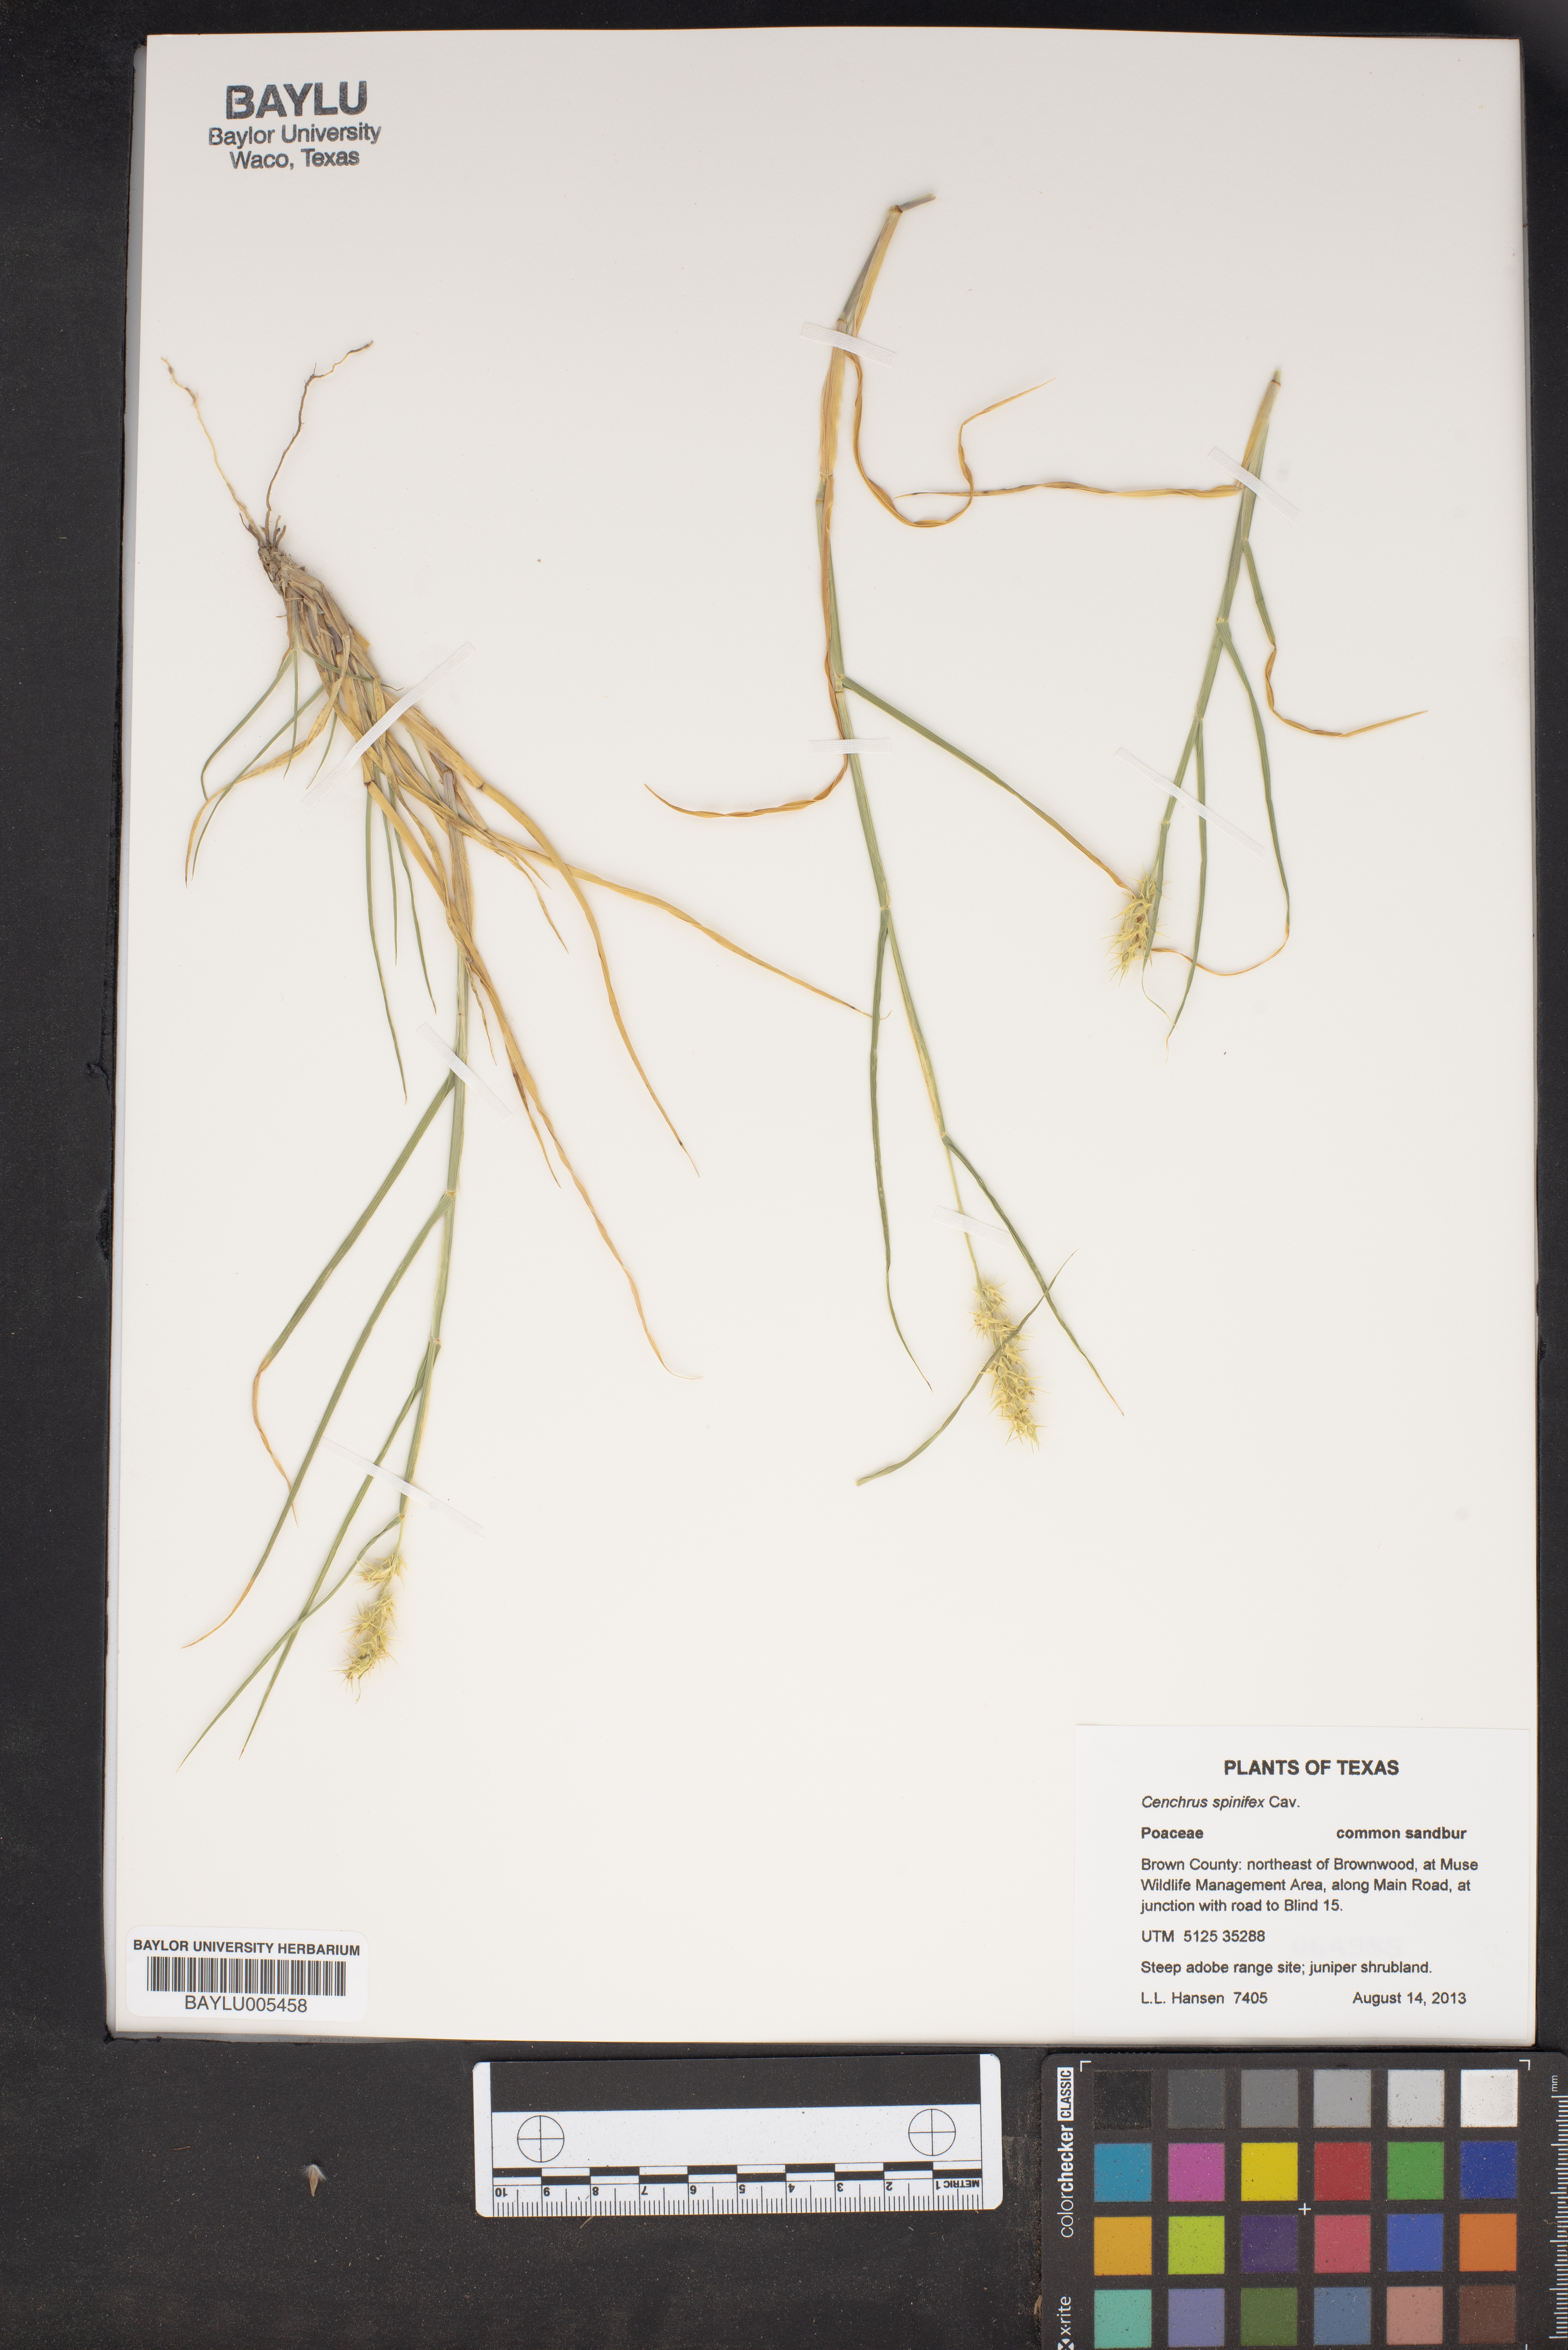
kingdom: Plantae
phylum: Tracheophyta
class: Liliopsida
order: Poales
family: Poaceae
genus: Cenchrus
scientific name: Cenchrus spinifex
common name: Coast sandbur
